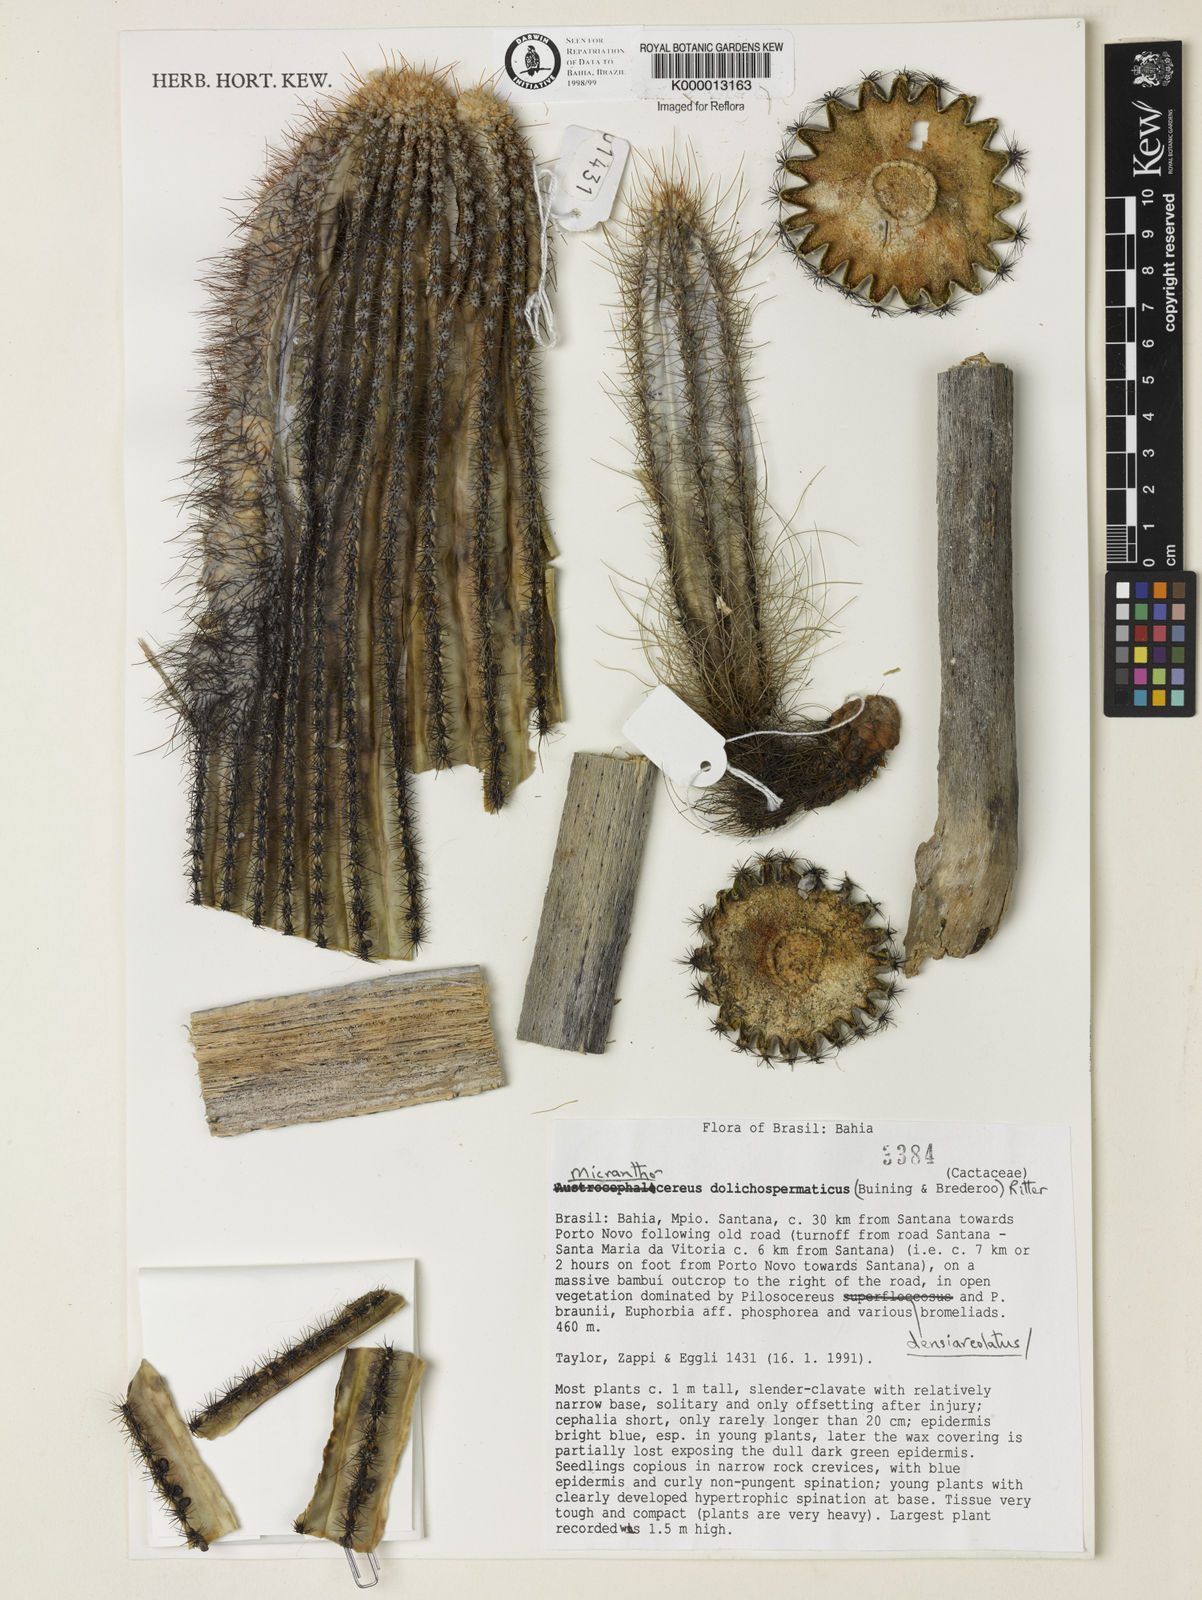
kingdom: Plantae
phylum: Tracheophyta
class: Magnoliopsida
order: Caryophyllales
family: Cactaceae
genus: Micranthocereus
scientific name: Micranthocereus dolichospermaticus
